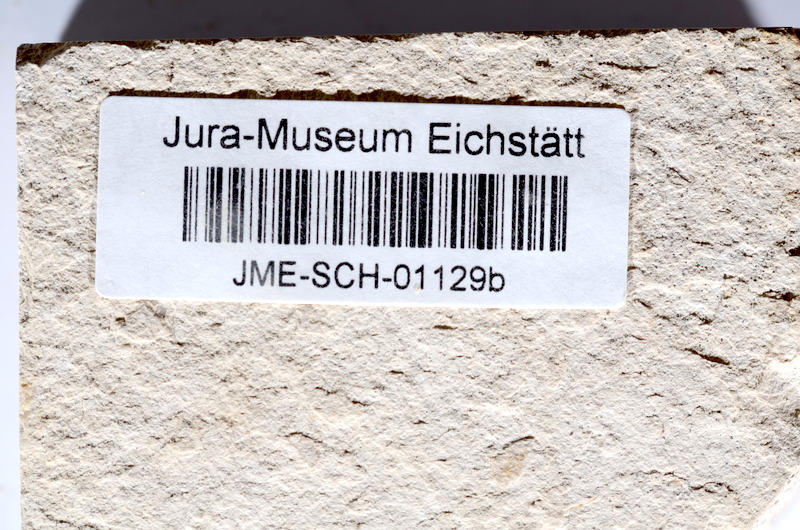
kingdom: Animalia
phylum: Chordata
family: Ascalaboidae
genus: Tharsis
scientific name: Tharsis dubius
